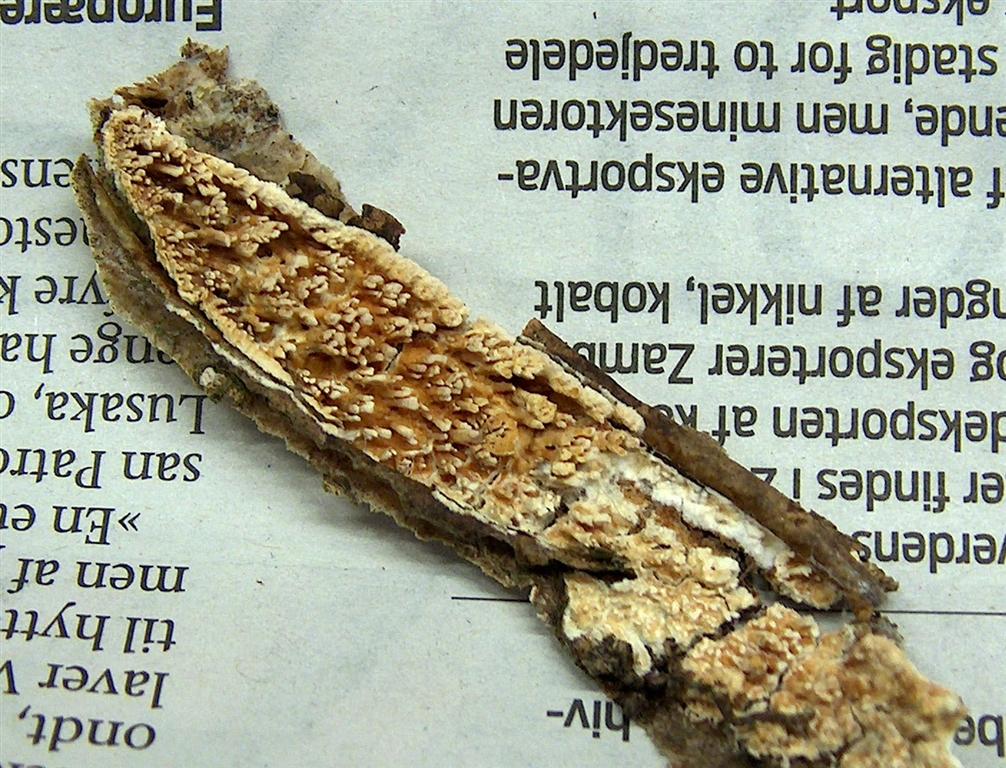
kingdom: Fungi
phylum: Basidiomycota
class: Agaricomycetes
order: Hymenochaetales
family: Schizoporaceae
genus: Xylodon
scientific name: Xylodon radula
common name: grovtandet kalkskind
